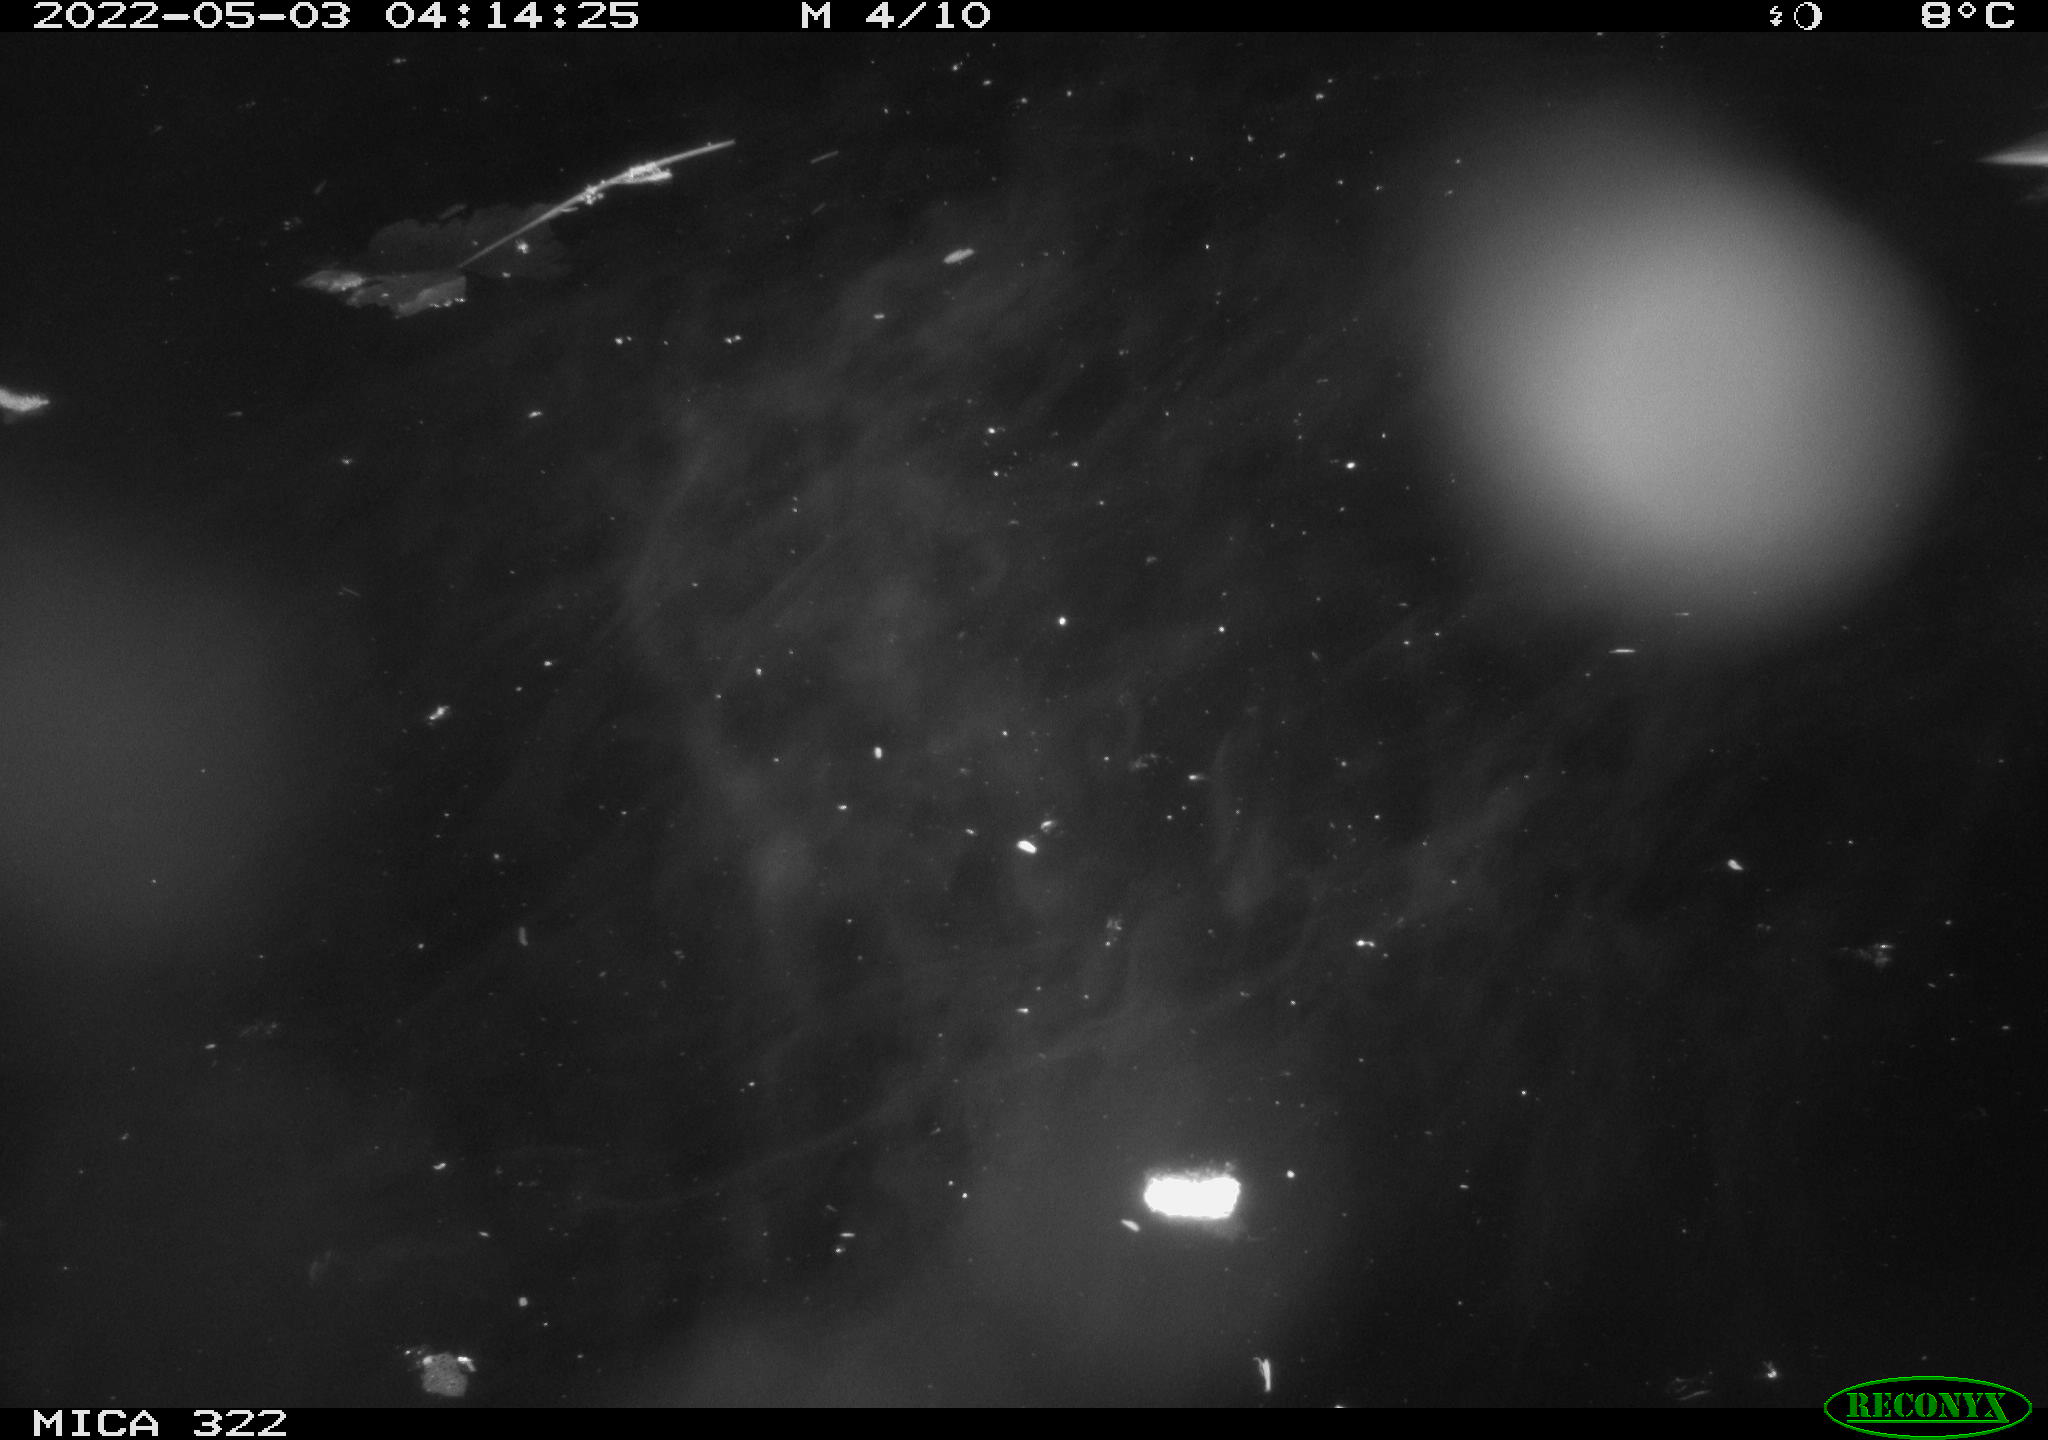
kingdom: Animalia
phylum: Chordata
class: Aves
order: Anseriformes
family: Anatidae
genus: Mareca
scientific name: Mareca strepera
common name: Gadwall
